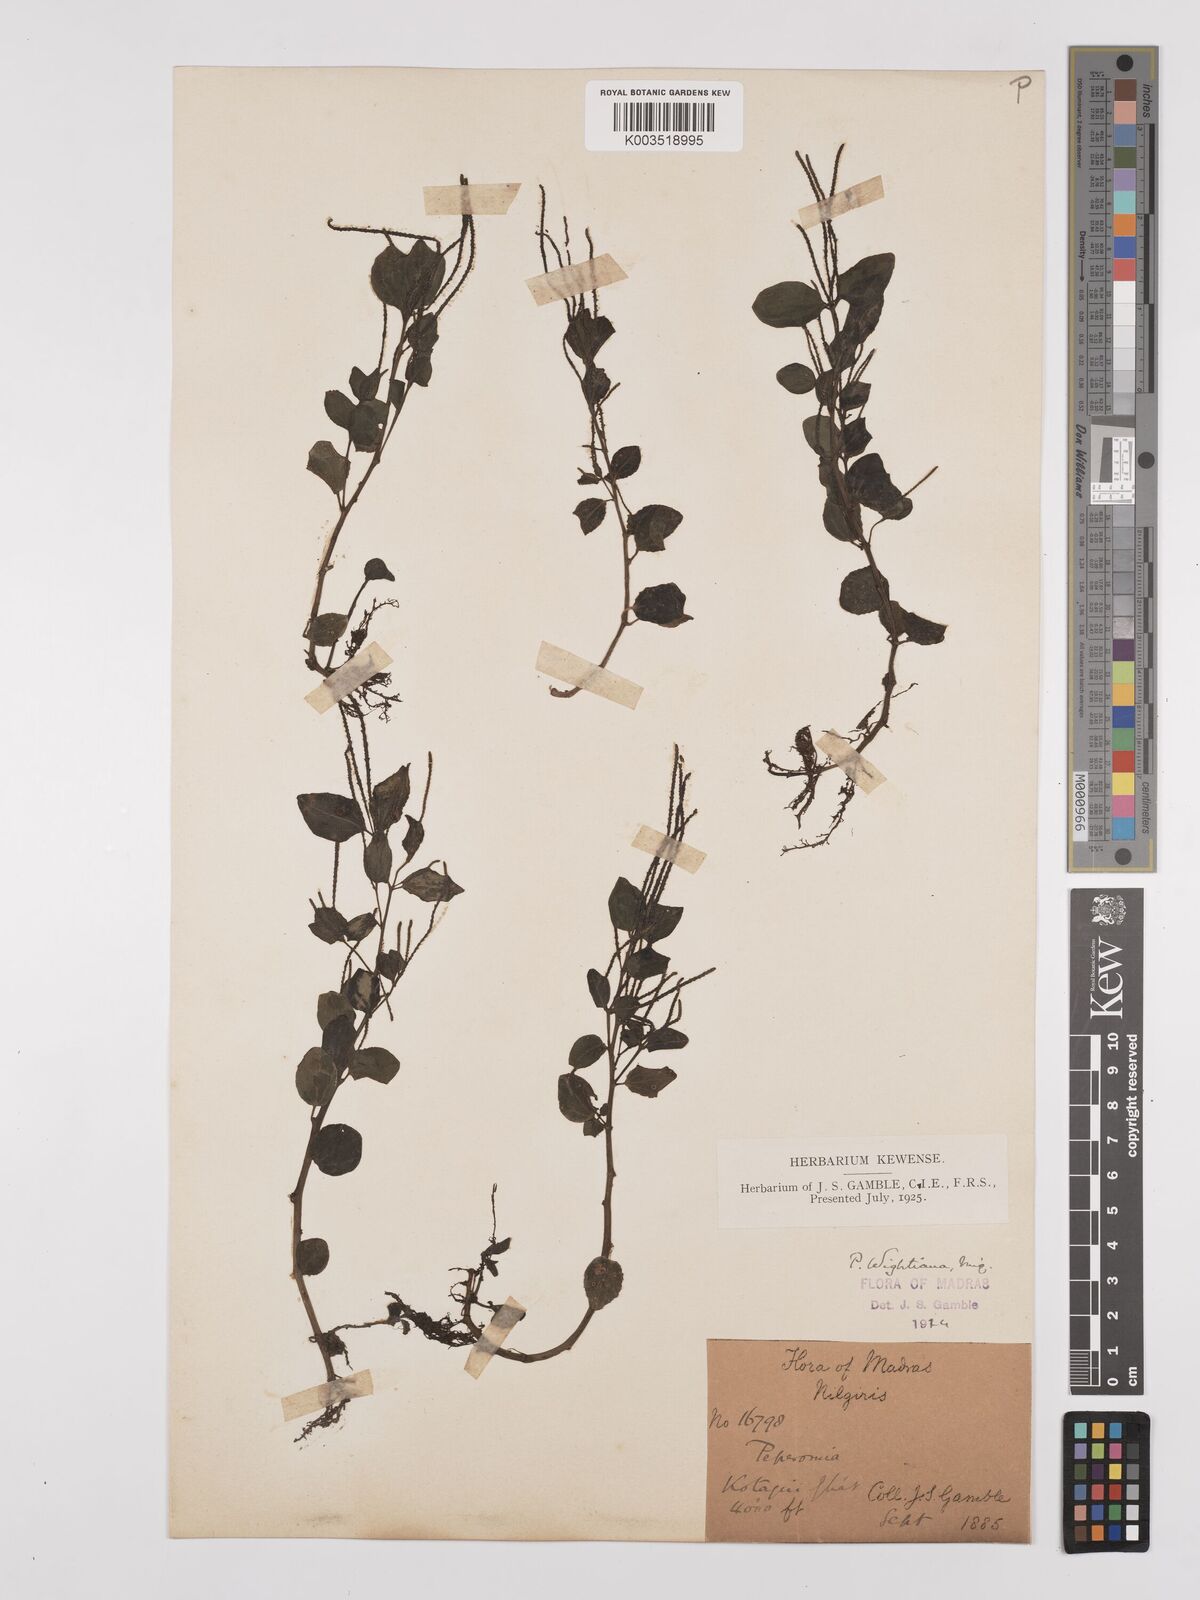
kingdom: Plantae
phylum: Tracheophyta
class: Magnoliopsida
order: Piperales
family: Piperaceae
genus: Peperomia
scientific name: Peperomia wightiana
